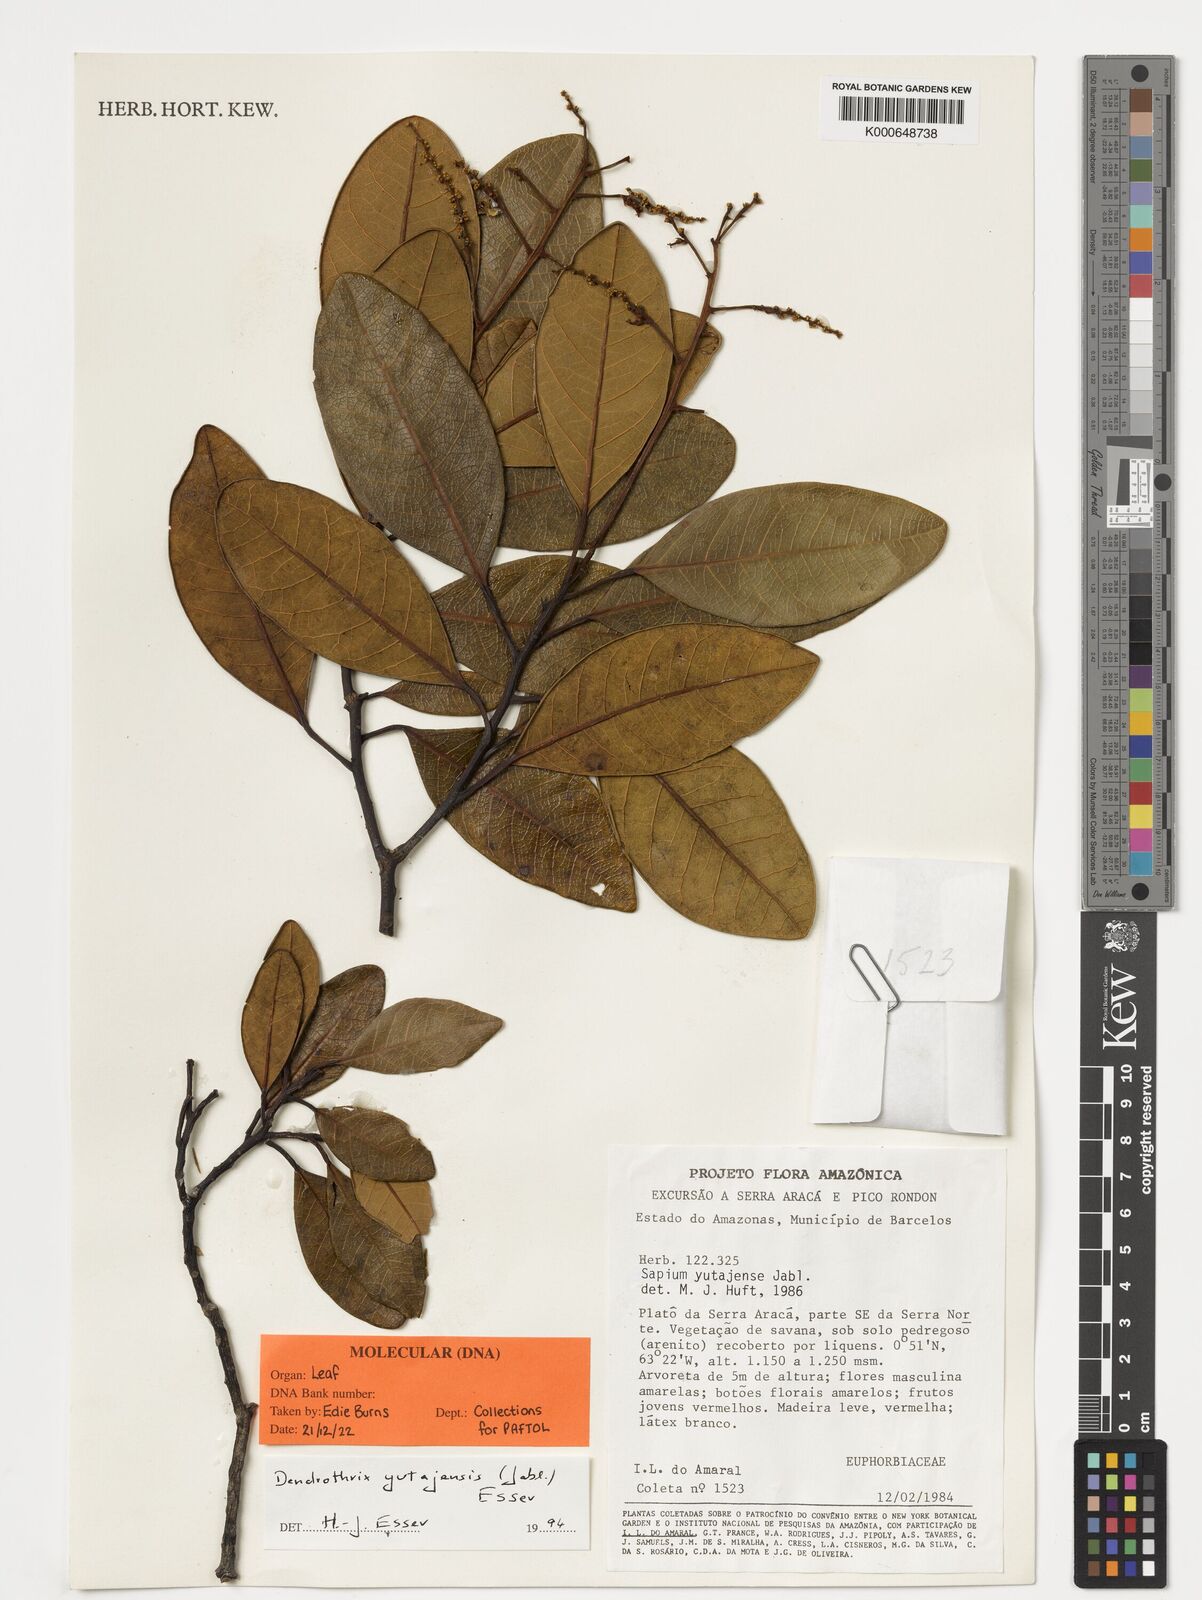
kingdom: Plantae
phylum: Tracheophyta
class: Magnoliopsida
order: Malpighiales
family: Euphorbiaceae
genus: Dendrothrix
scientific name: Dendrothrix yutajensis
